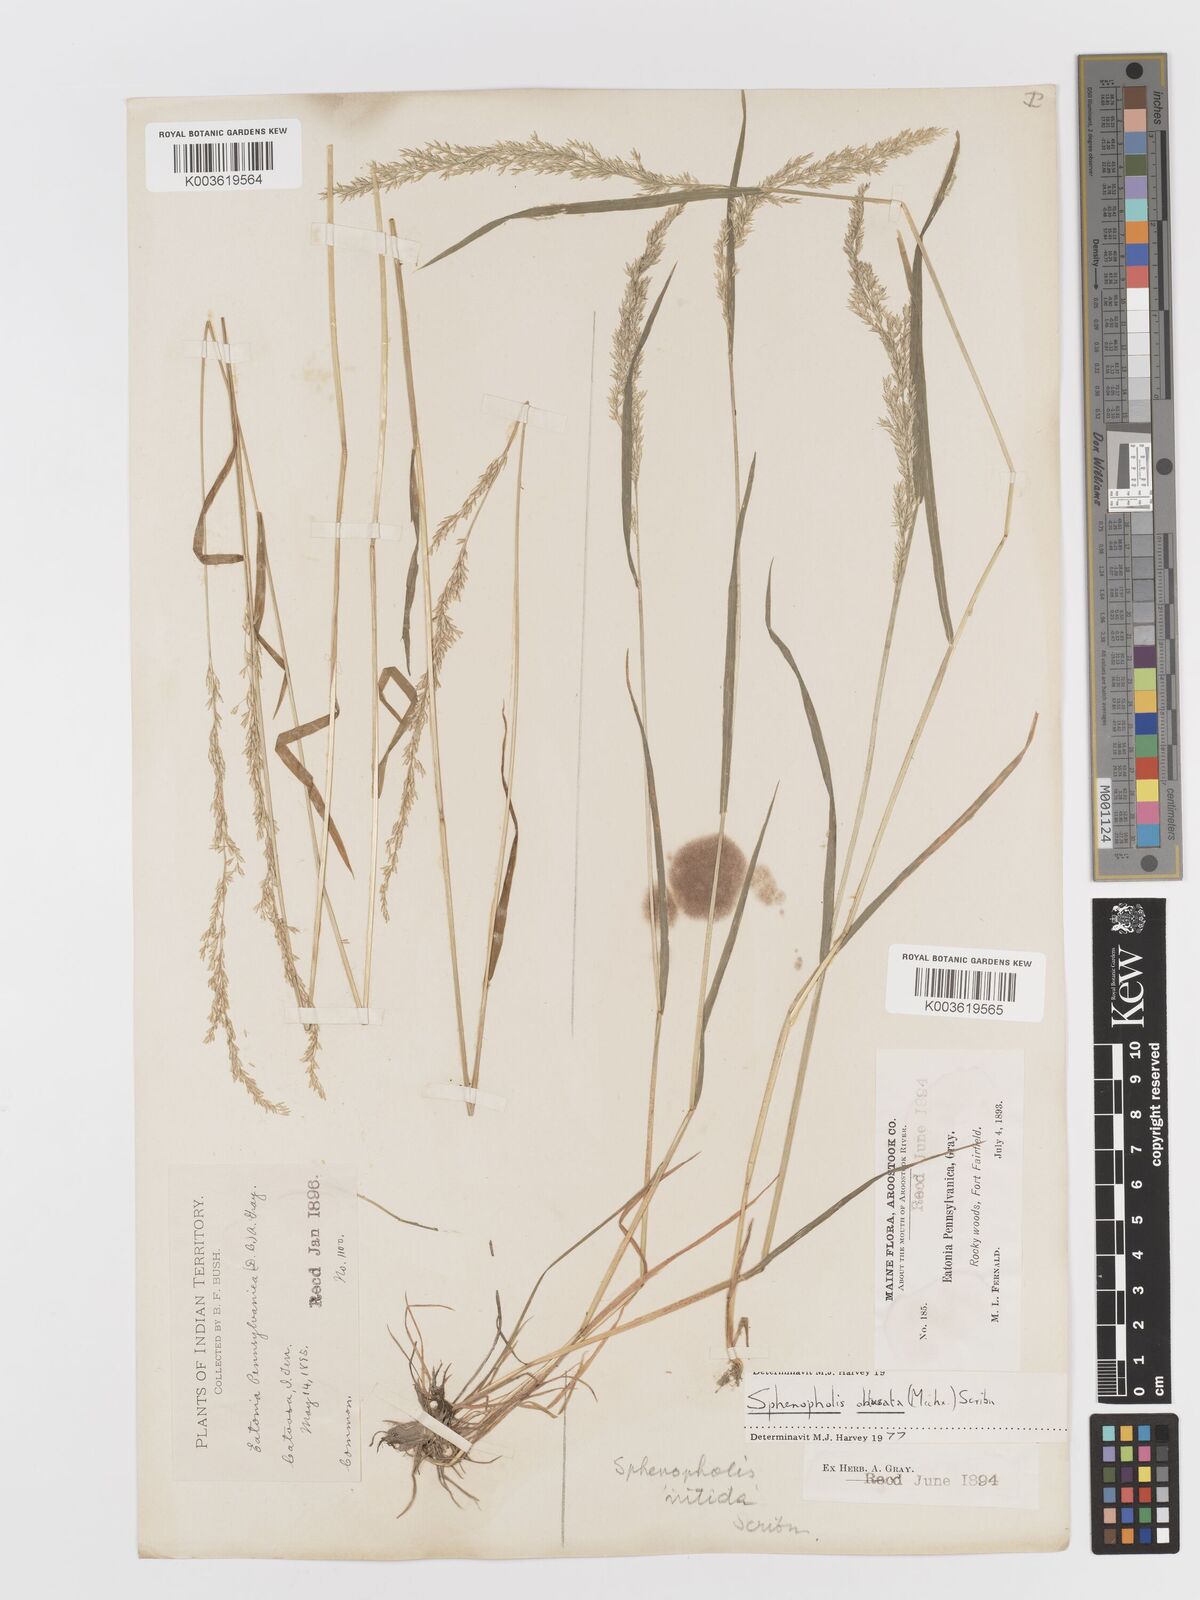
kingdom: Plantae
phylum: Tracheophyta
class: Liliopsida
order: Poales
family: Poaceae
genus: Sphenopholis
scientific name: Sphenopholis obtusata
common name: Prairie grass
